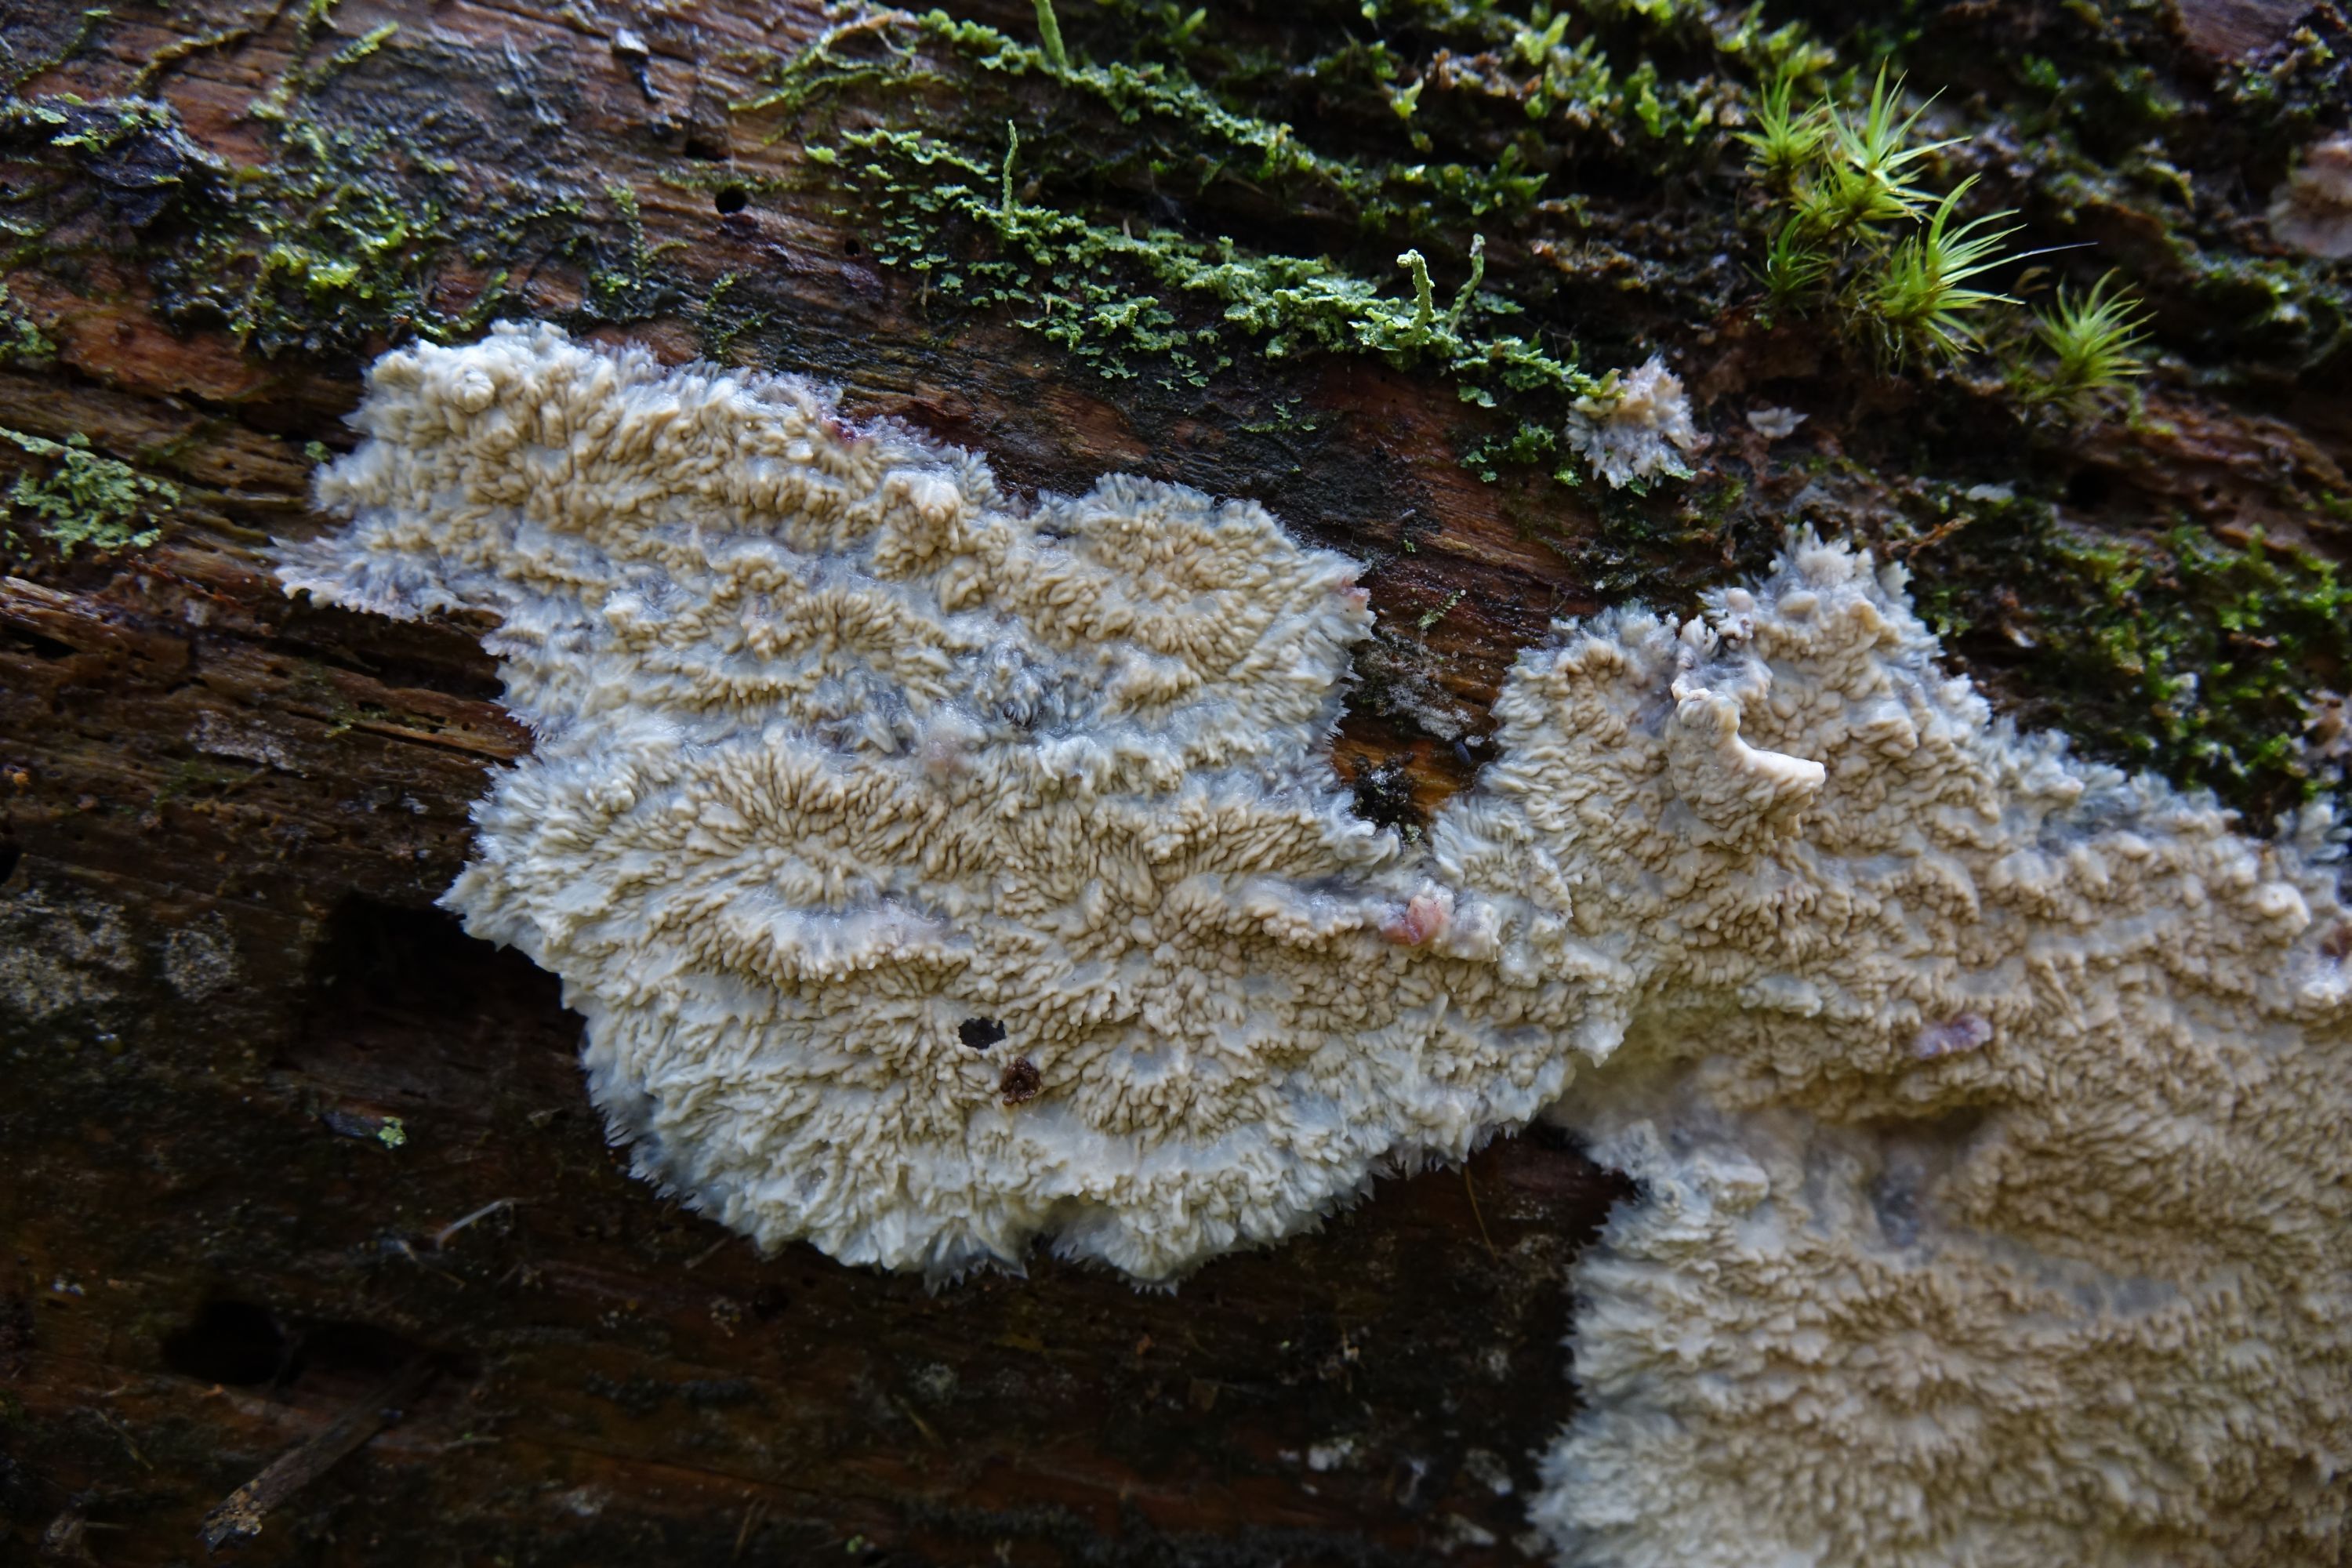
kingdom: Fungi
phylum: Basidiomycota
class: Agaricomycetes
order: Polyporales
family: Meruliaceae
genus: Hermanssonia
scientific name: Hermanssonia centrifuga
